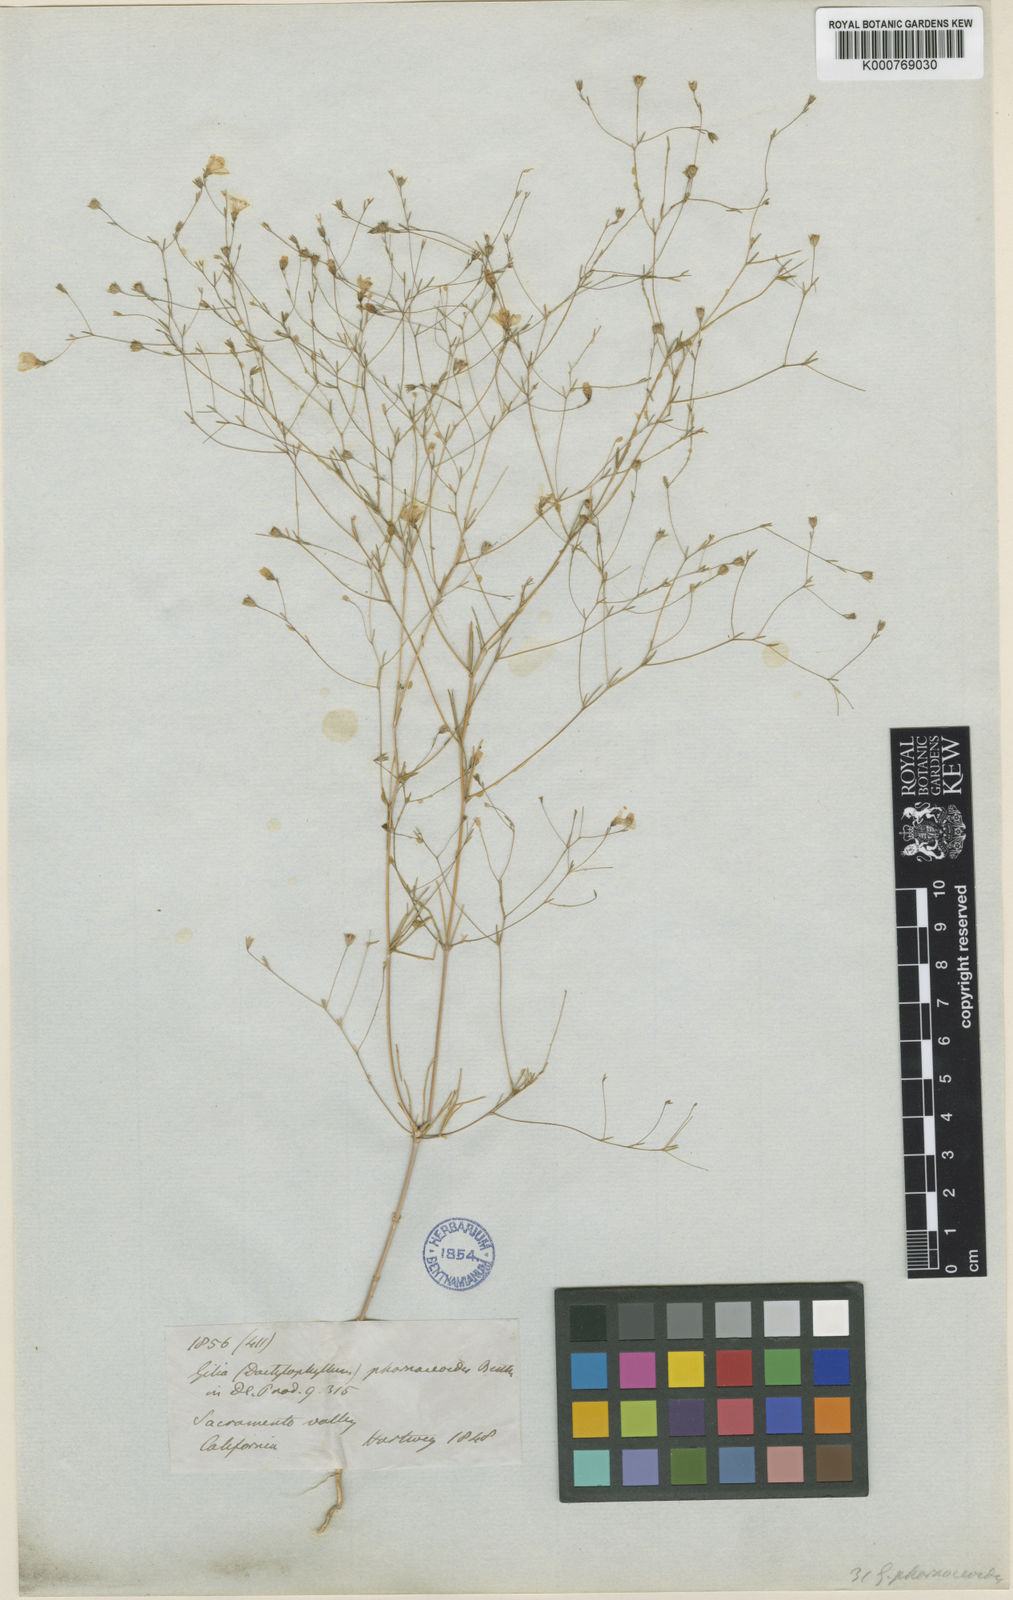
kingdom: Plantae
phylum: Tracheophyta
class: Magnoliopsida
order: Ericales
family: Polemoniaceae
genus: Leptosiphon
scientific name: Leptosiphon liniflorus
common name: Narrowflower flaxflower
